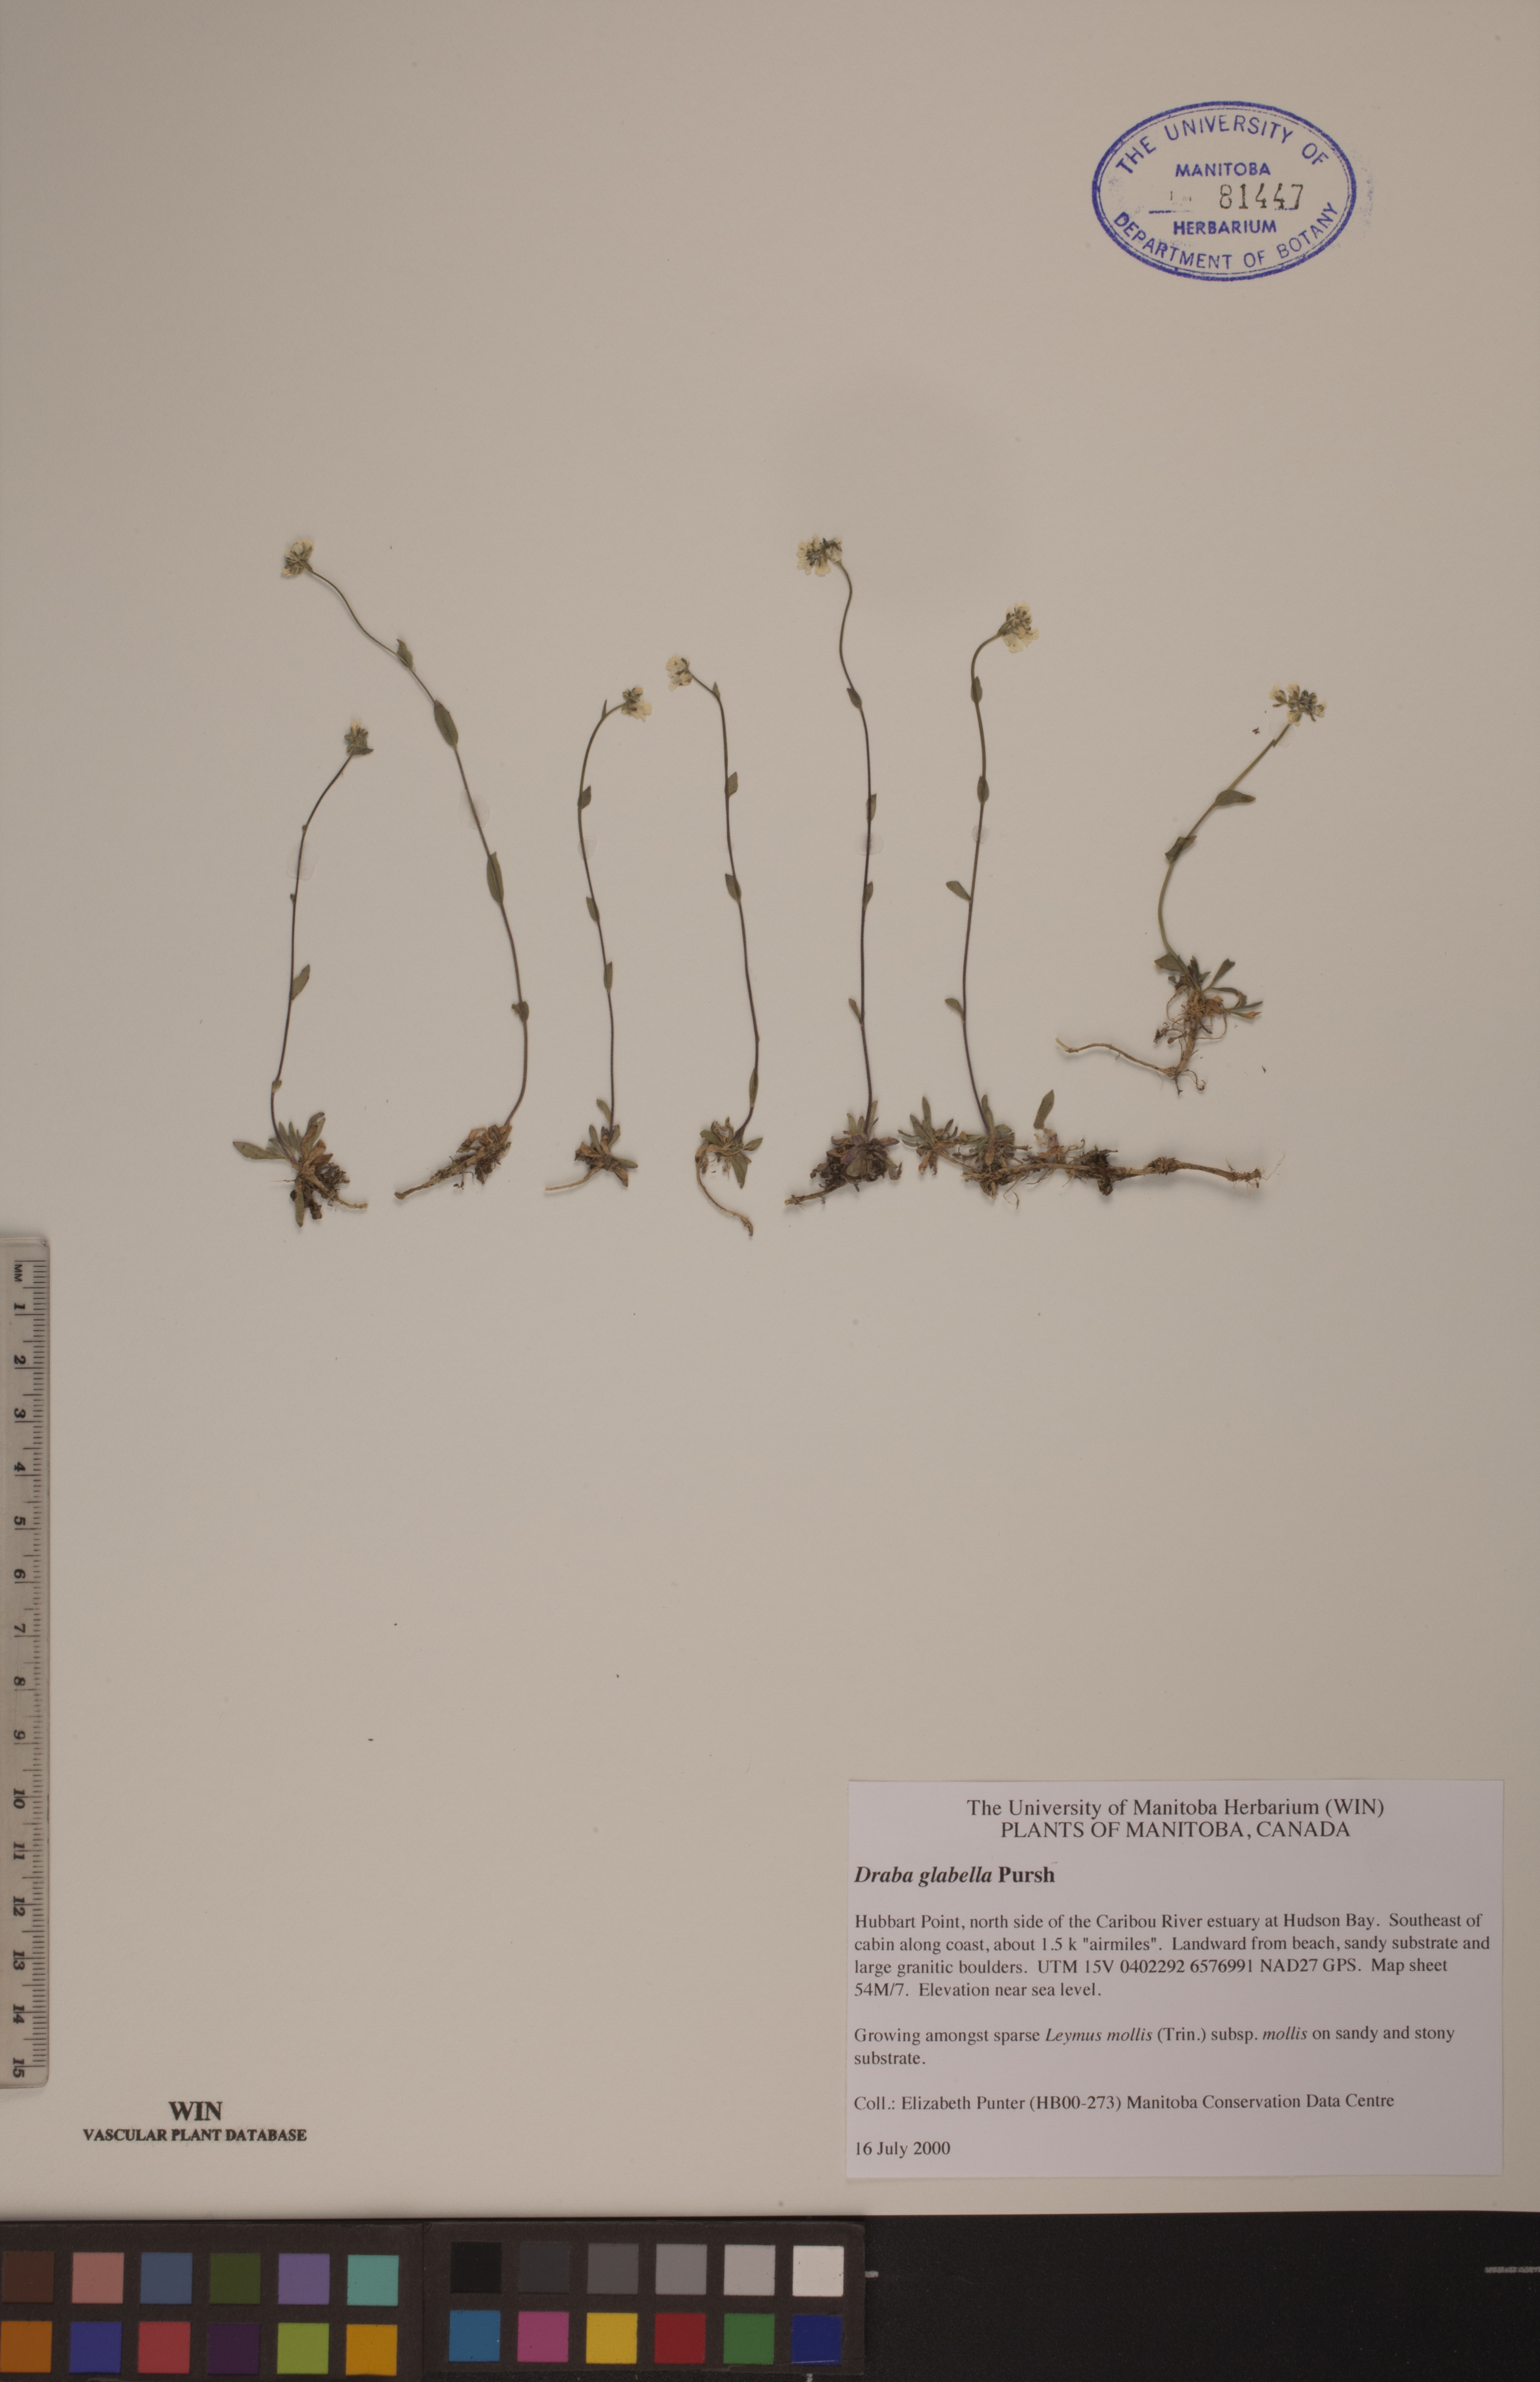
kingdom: Plantae
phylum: Tracheophyta
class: Magnoliopsida
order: Brassicales
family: Brassicaceae
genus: Draba
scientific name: Draba glabella
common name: Glaucous draba
